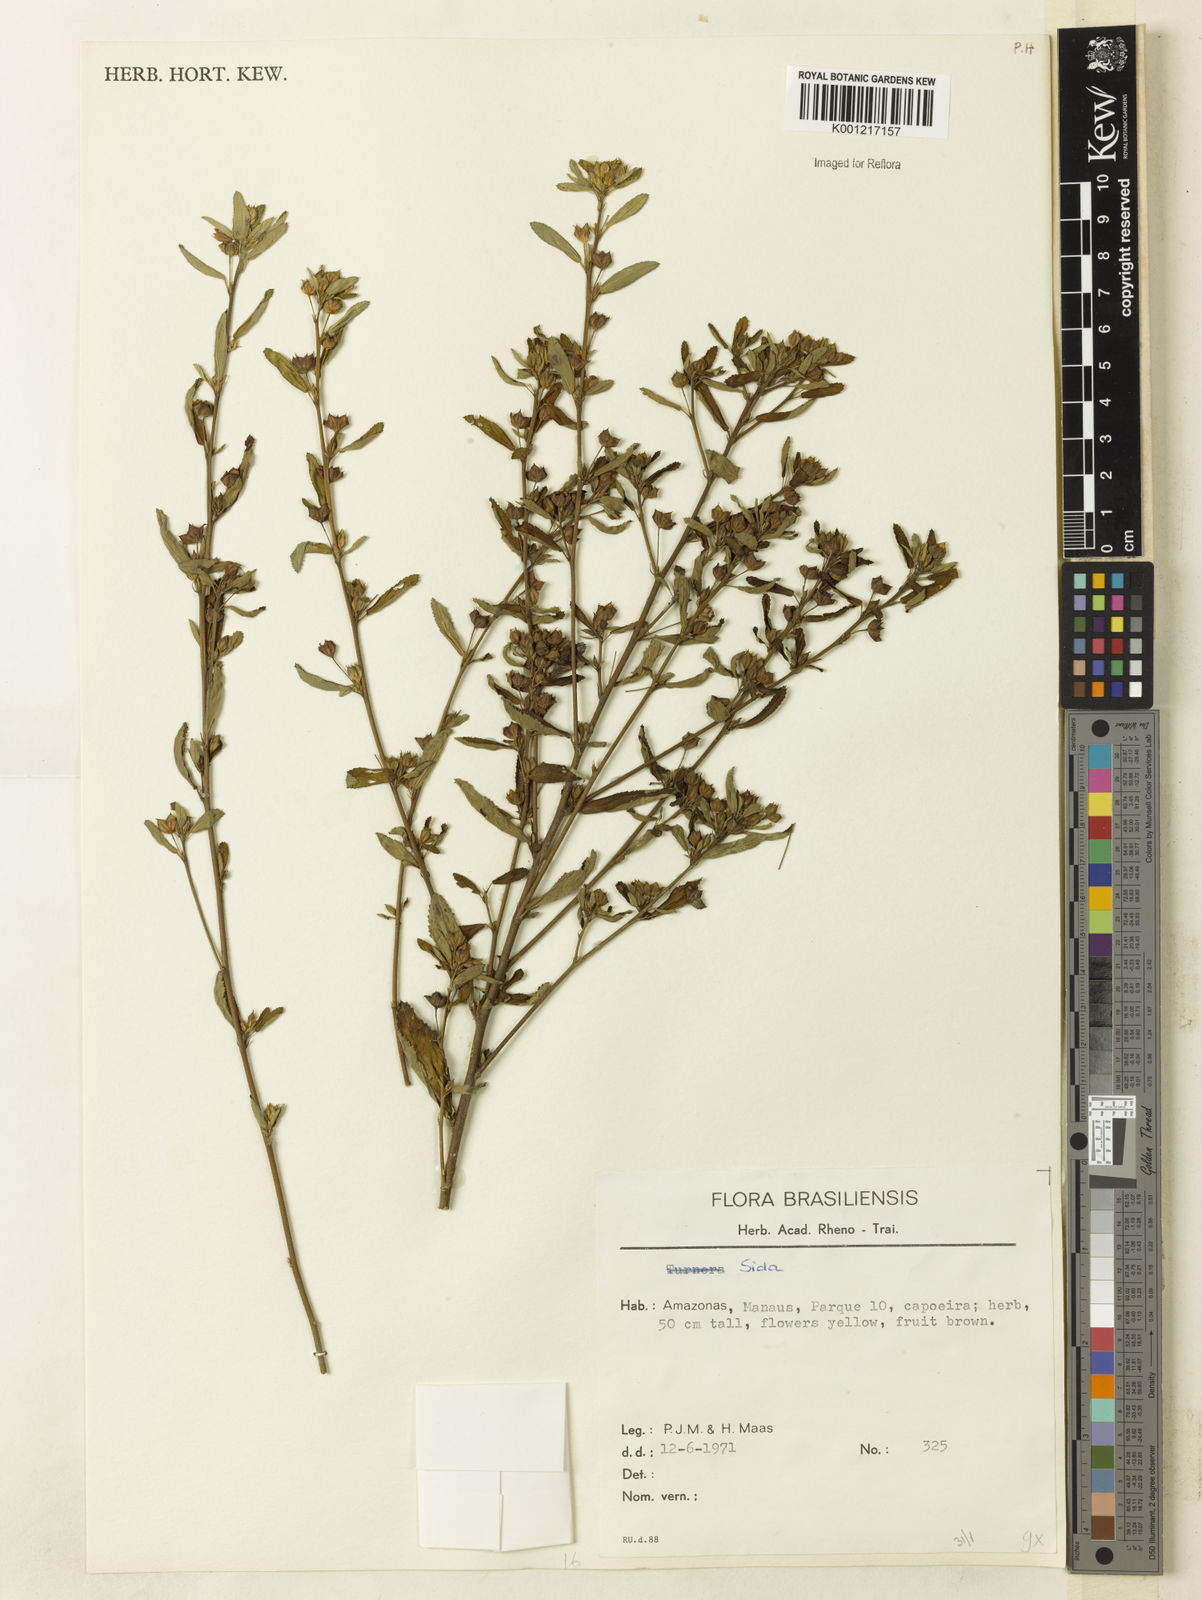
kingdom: Plantae
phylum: Tracheophyta
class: Magnoliopsida
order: Malvales
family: Malvaceae
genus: Sida
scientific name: Sida
